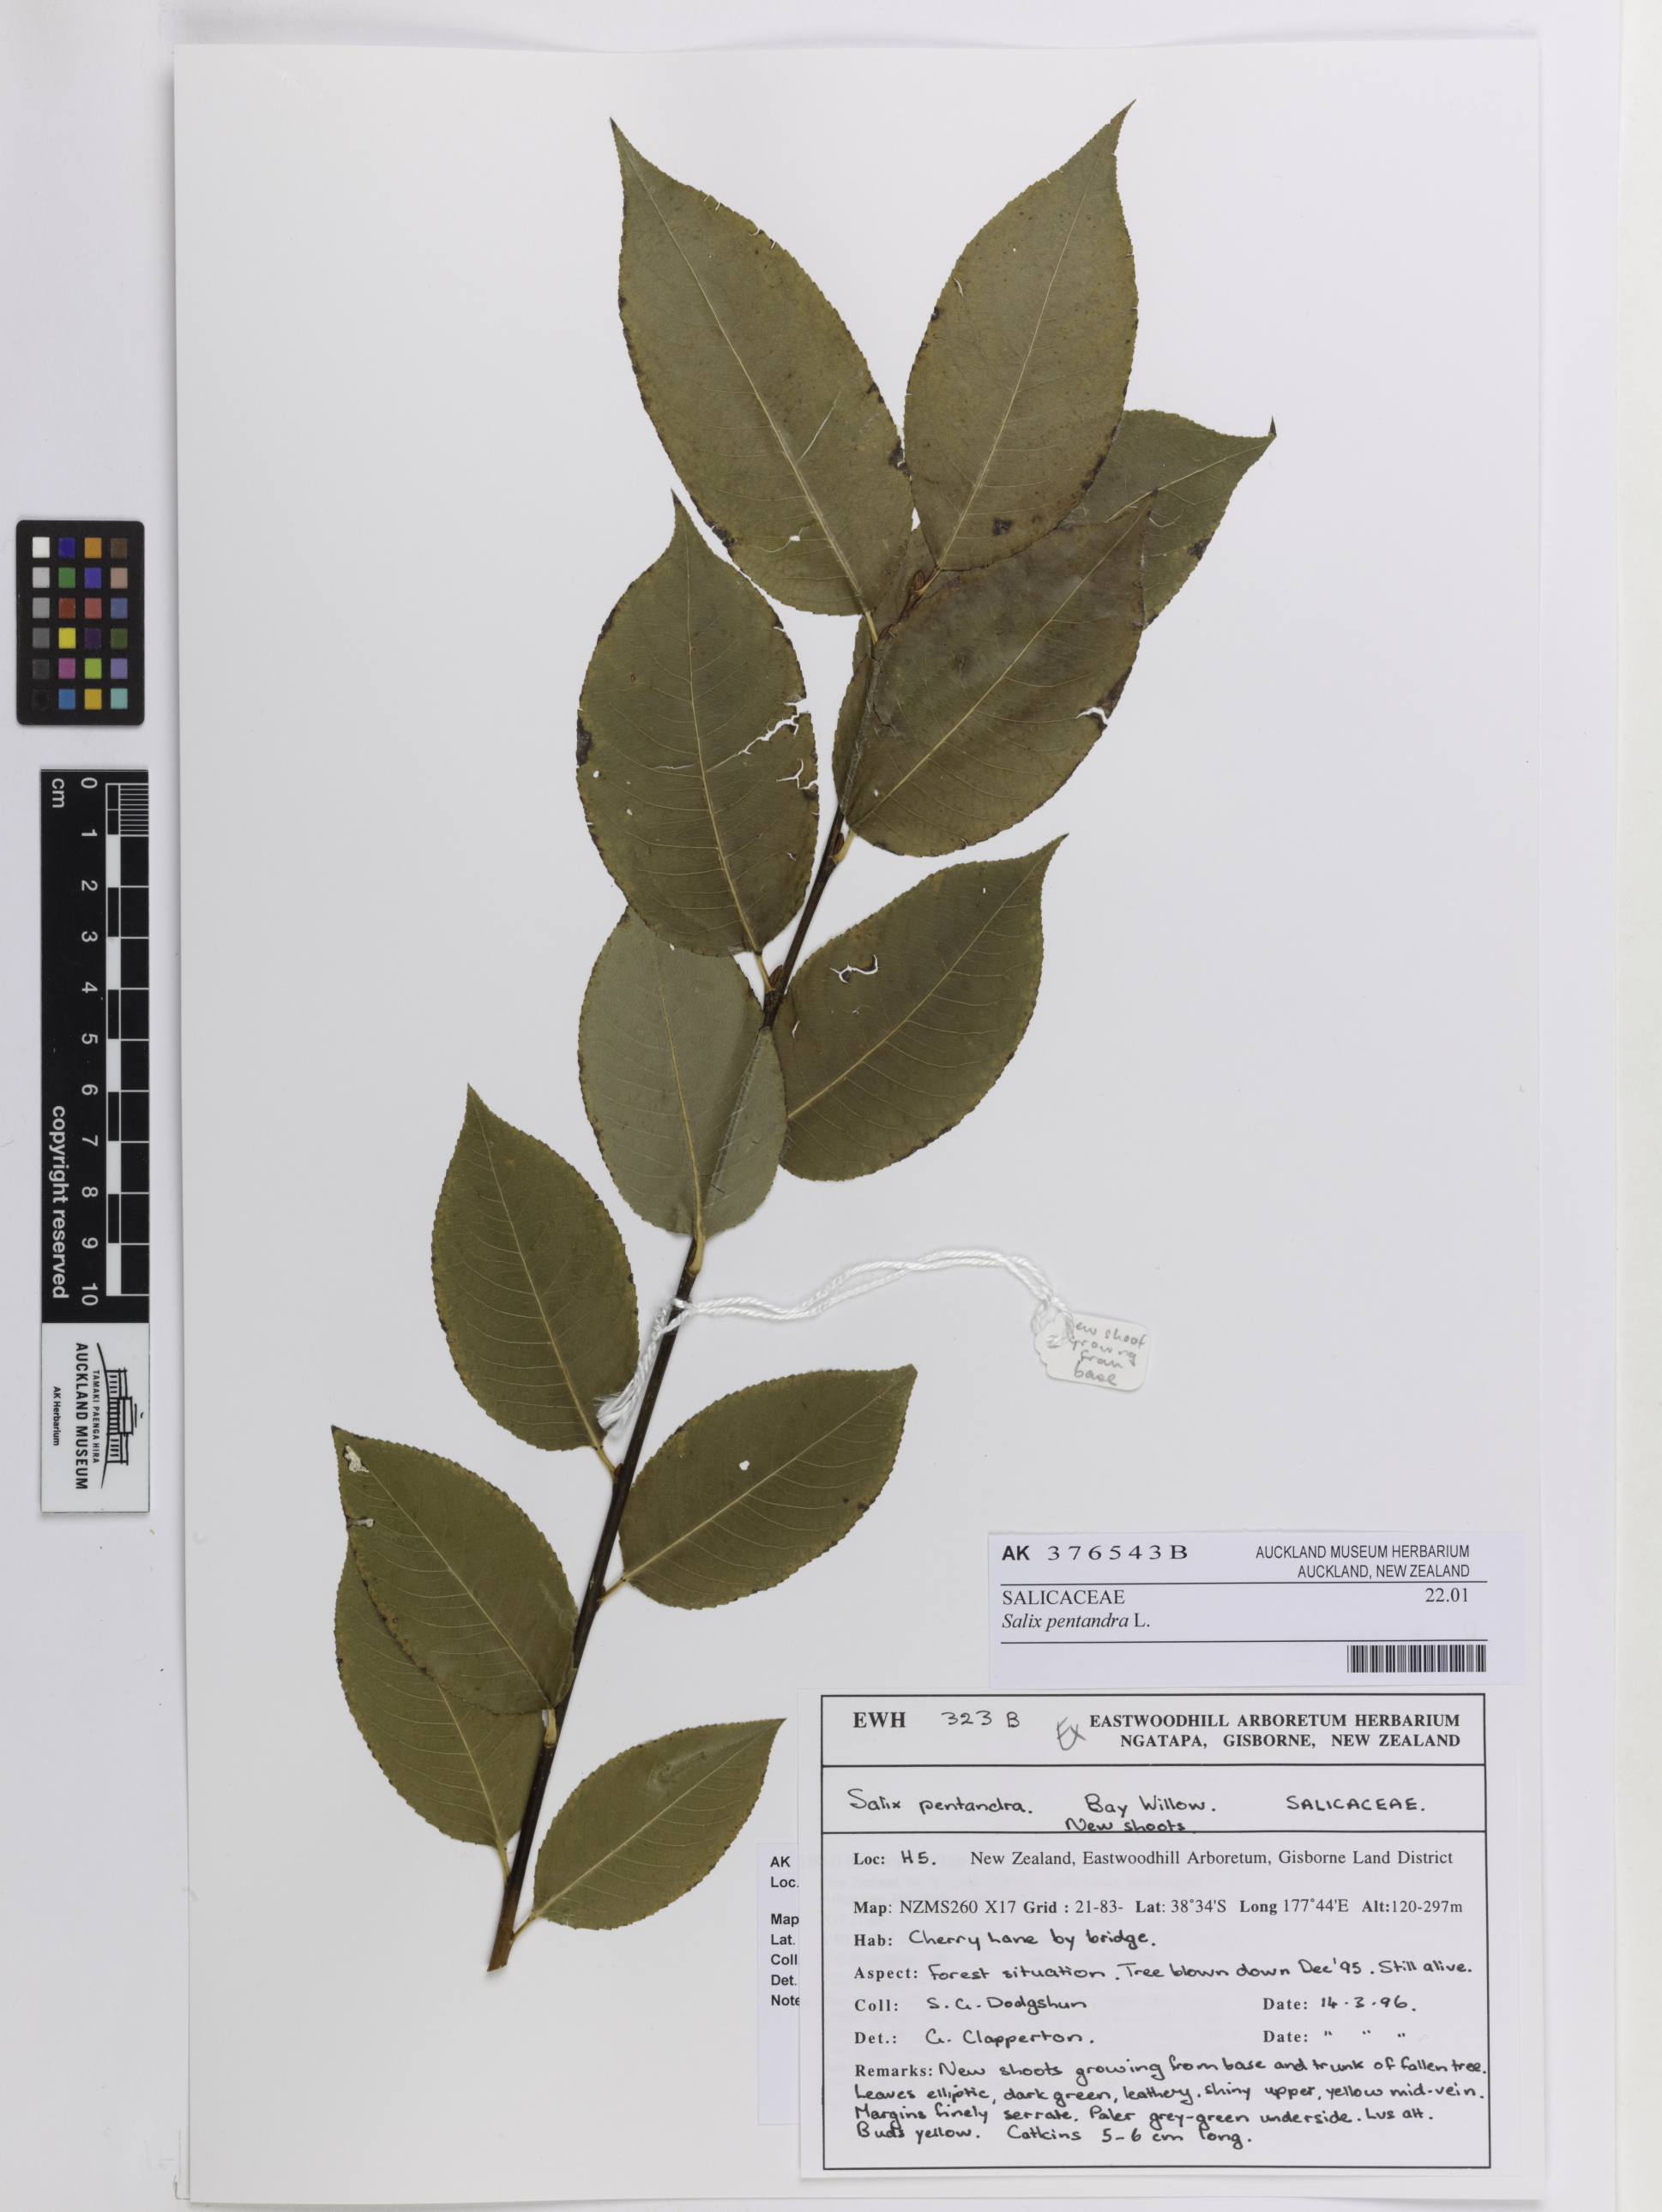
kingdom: Plantae
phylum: Tracheophyta
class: Magnoliopsida
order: Malpighiales
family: Salicaceae
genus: Salix
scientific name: Salix pentandra
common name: Bay willow
